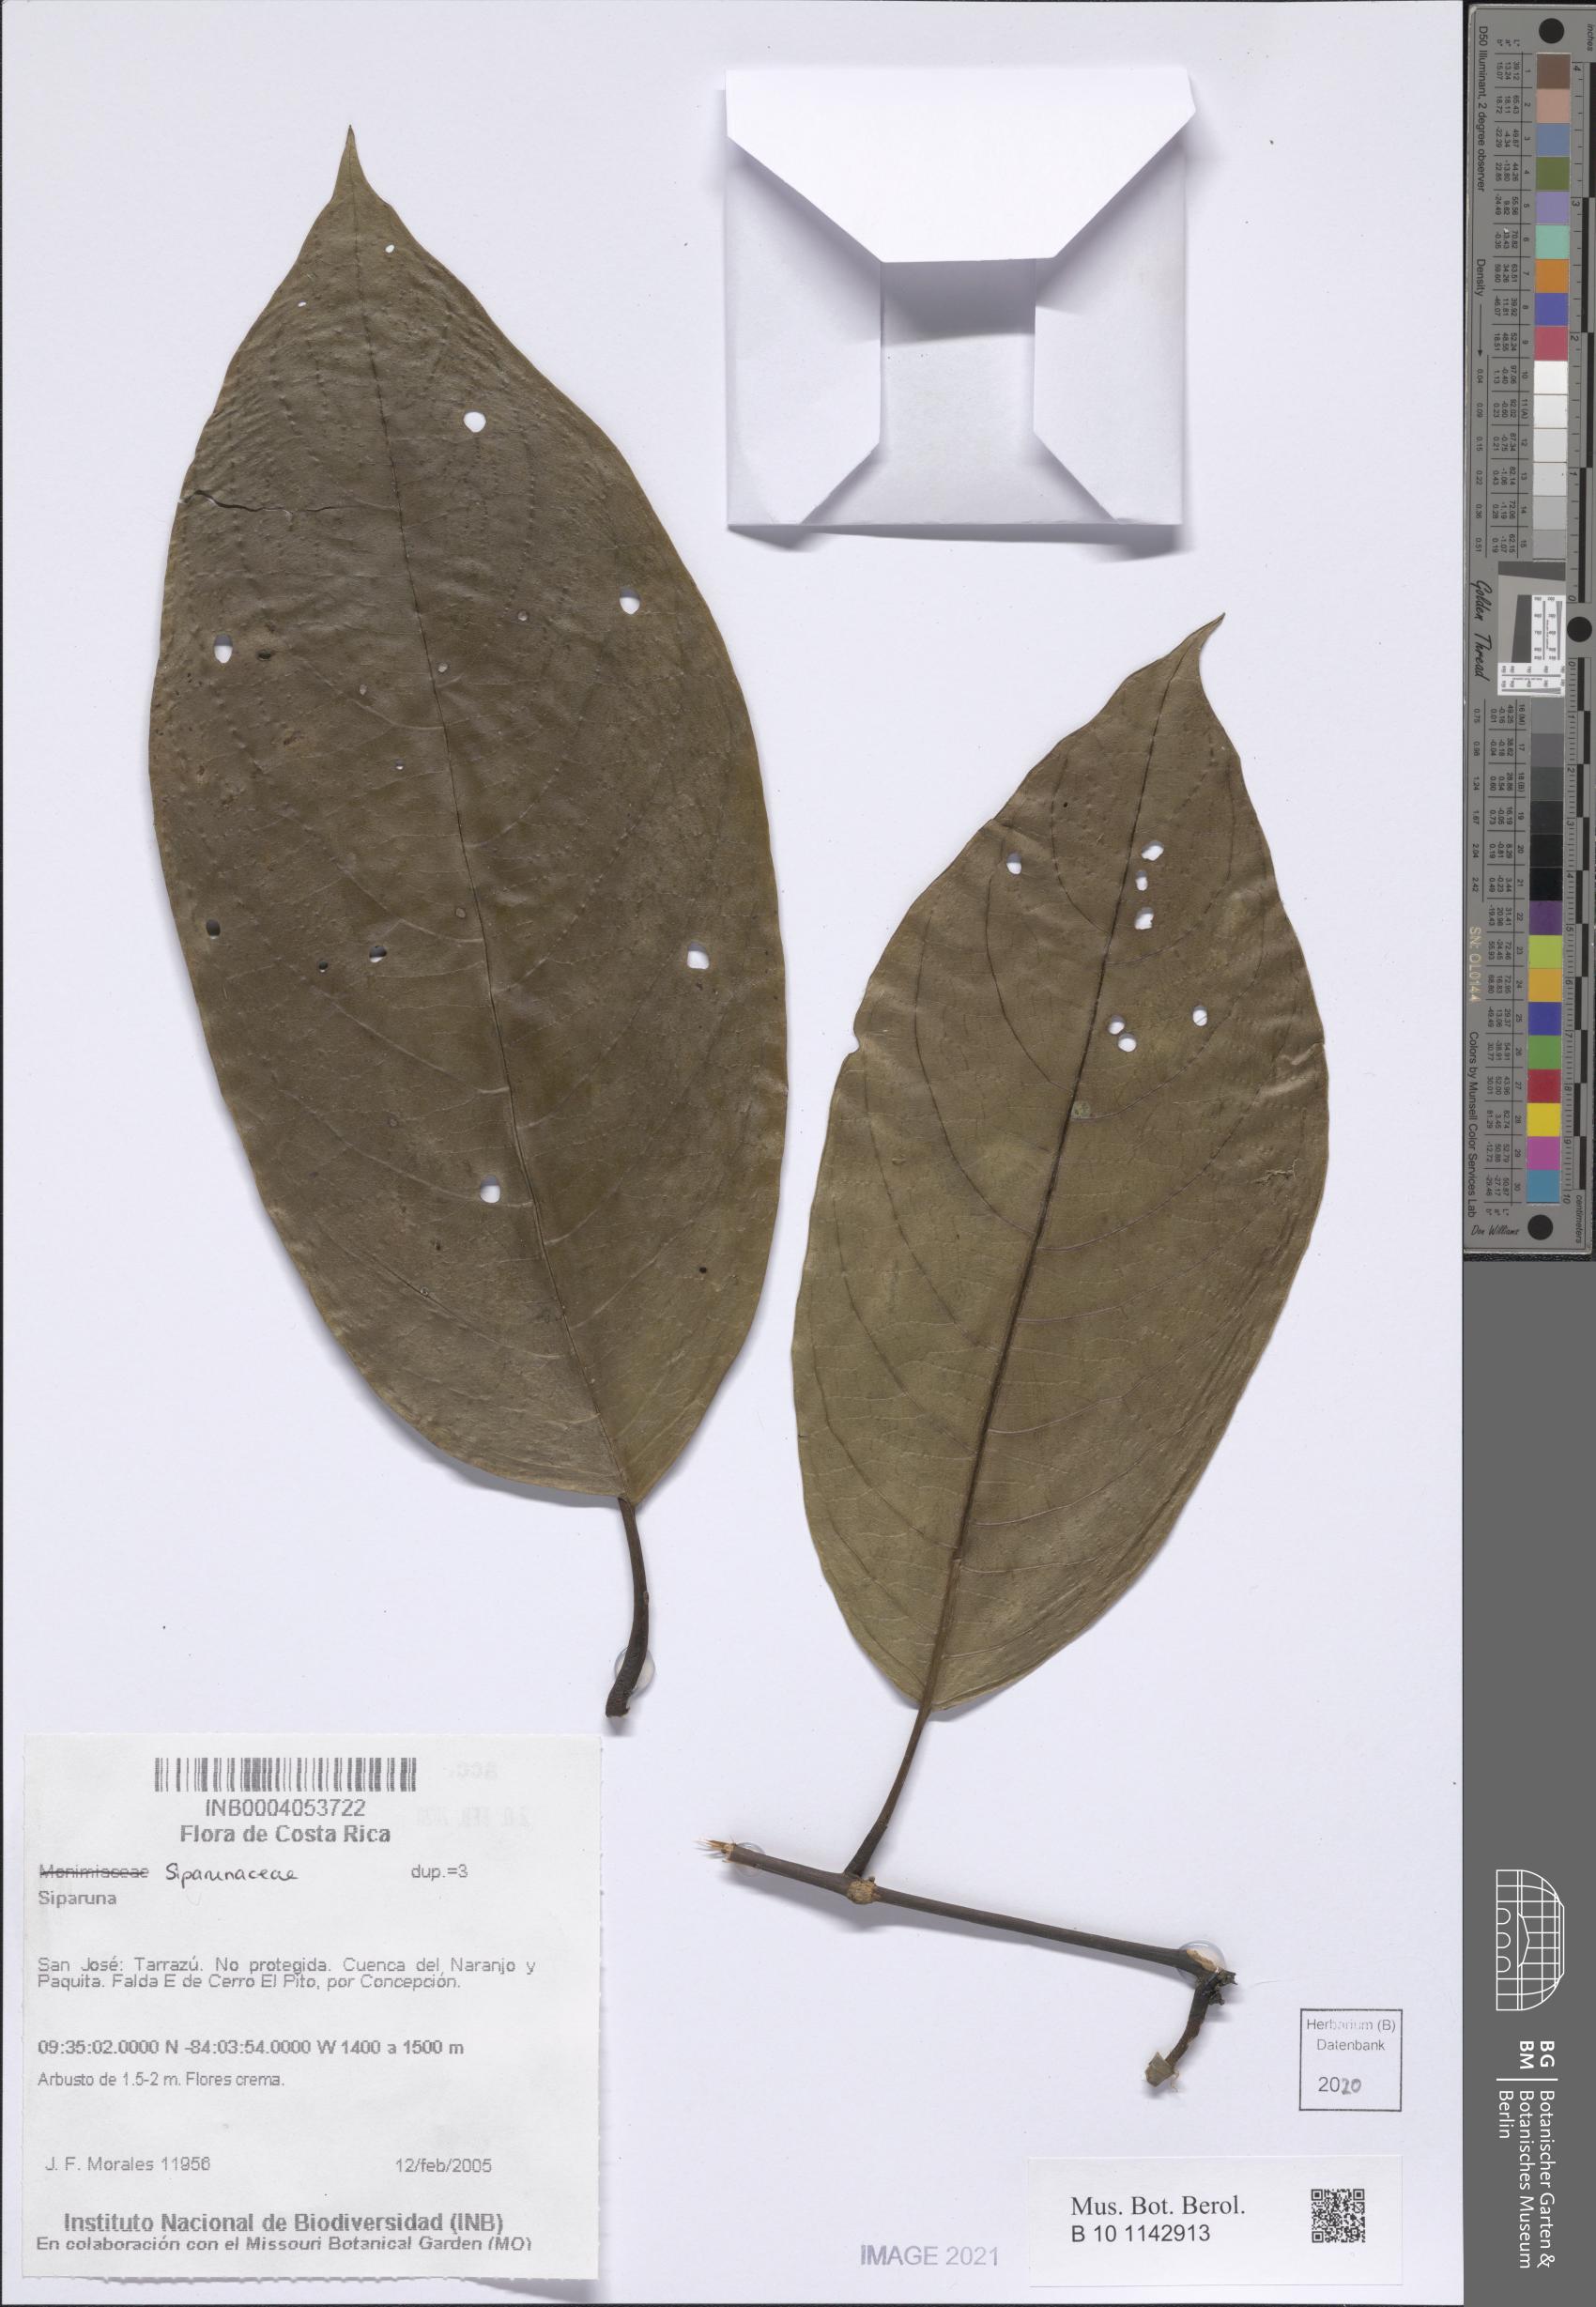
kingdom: Plantae
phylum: Tracheophyta
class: Magnoliopsida
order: Laurales
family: Siparunaceae
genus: Siparuna
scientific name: Siparuna
